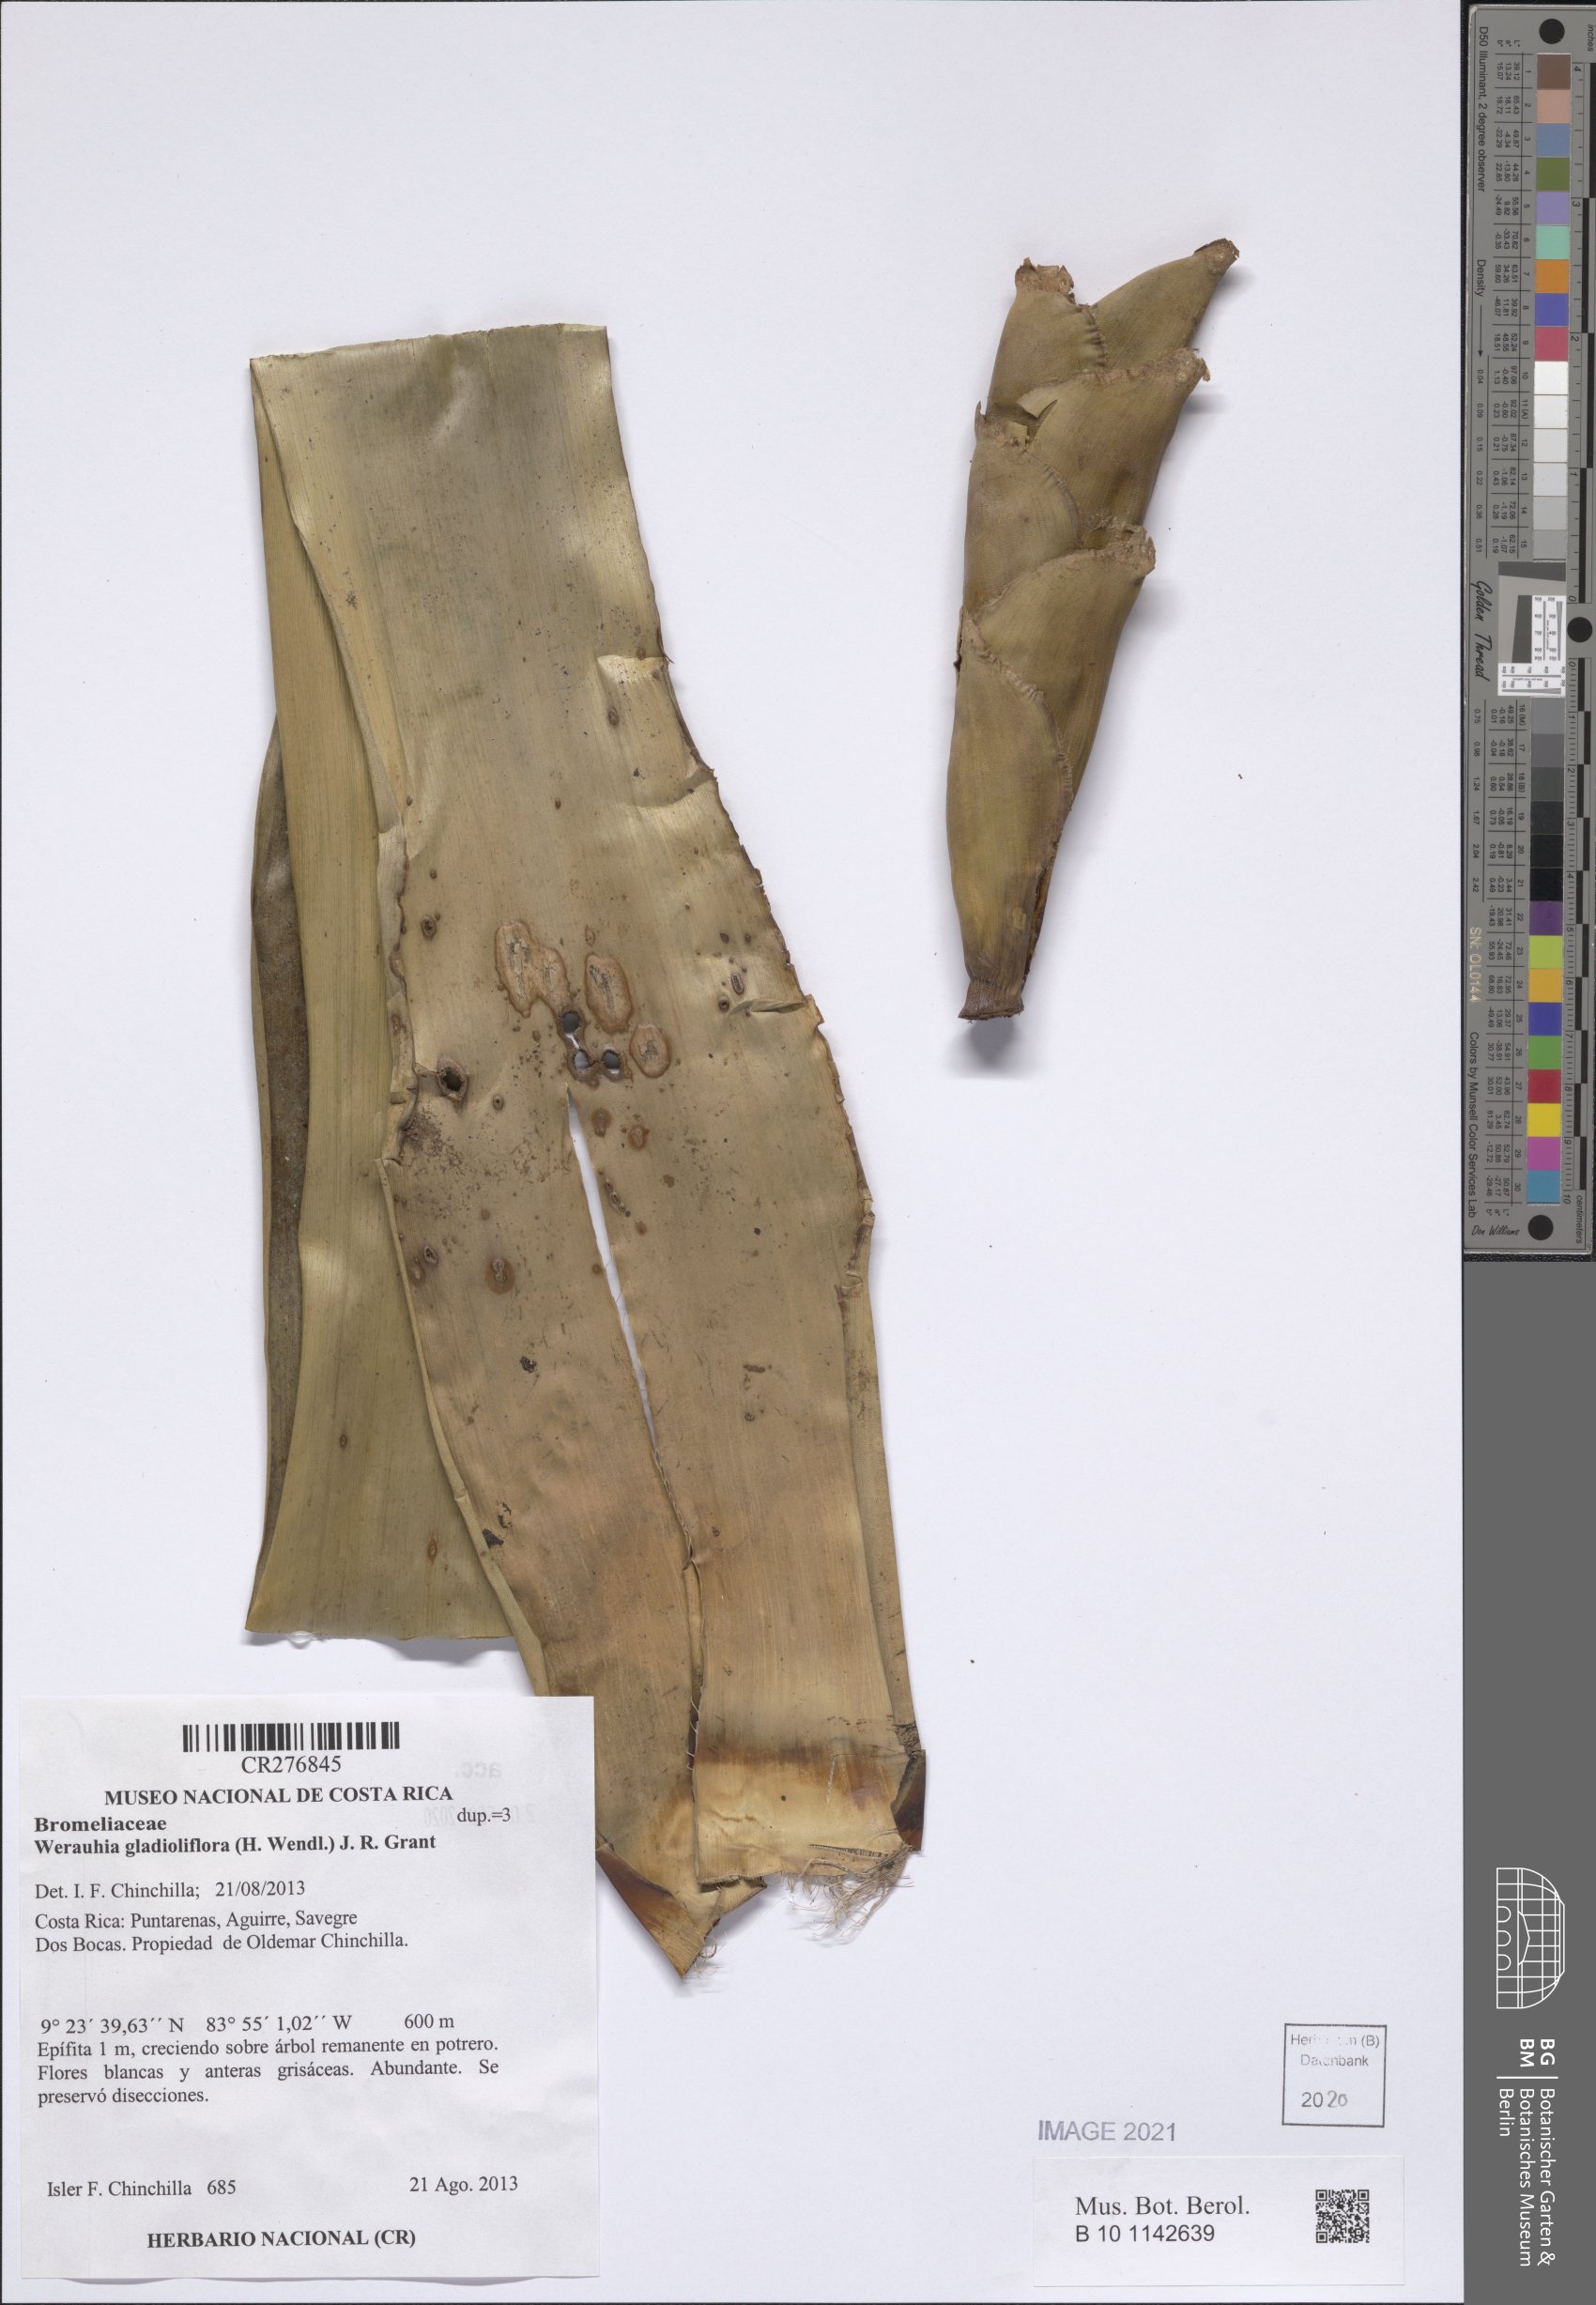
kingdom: Plantae
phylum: Tracheophyta
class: Liliopsida
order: Poales
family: Bromeliaceae
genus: Werauhia
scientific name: Werauhia gladioliflora
